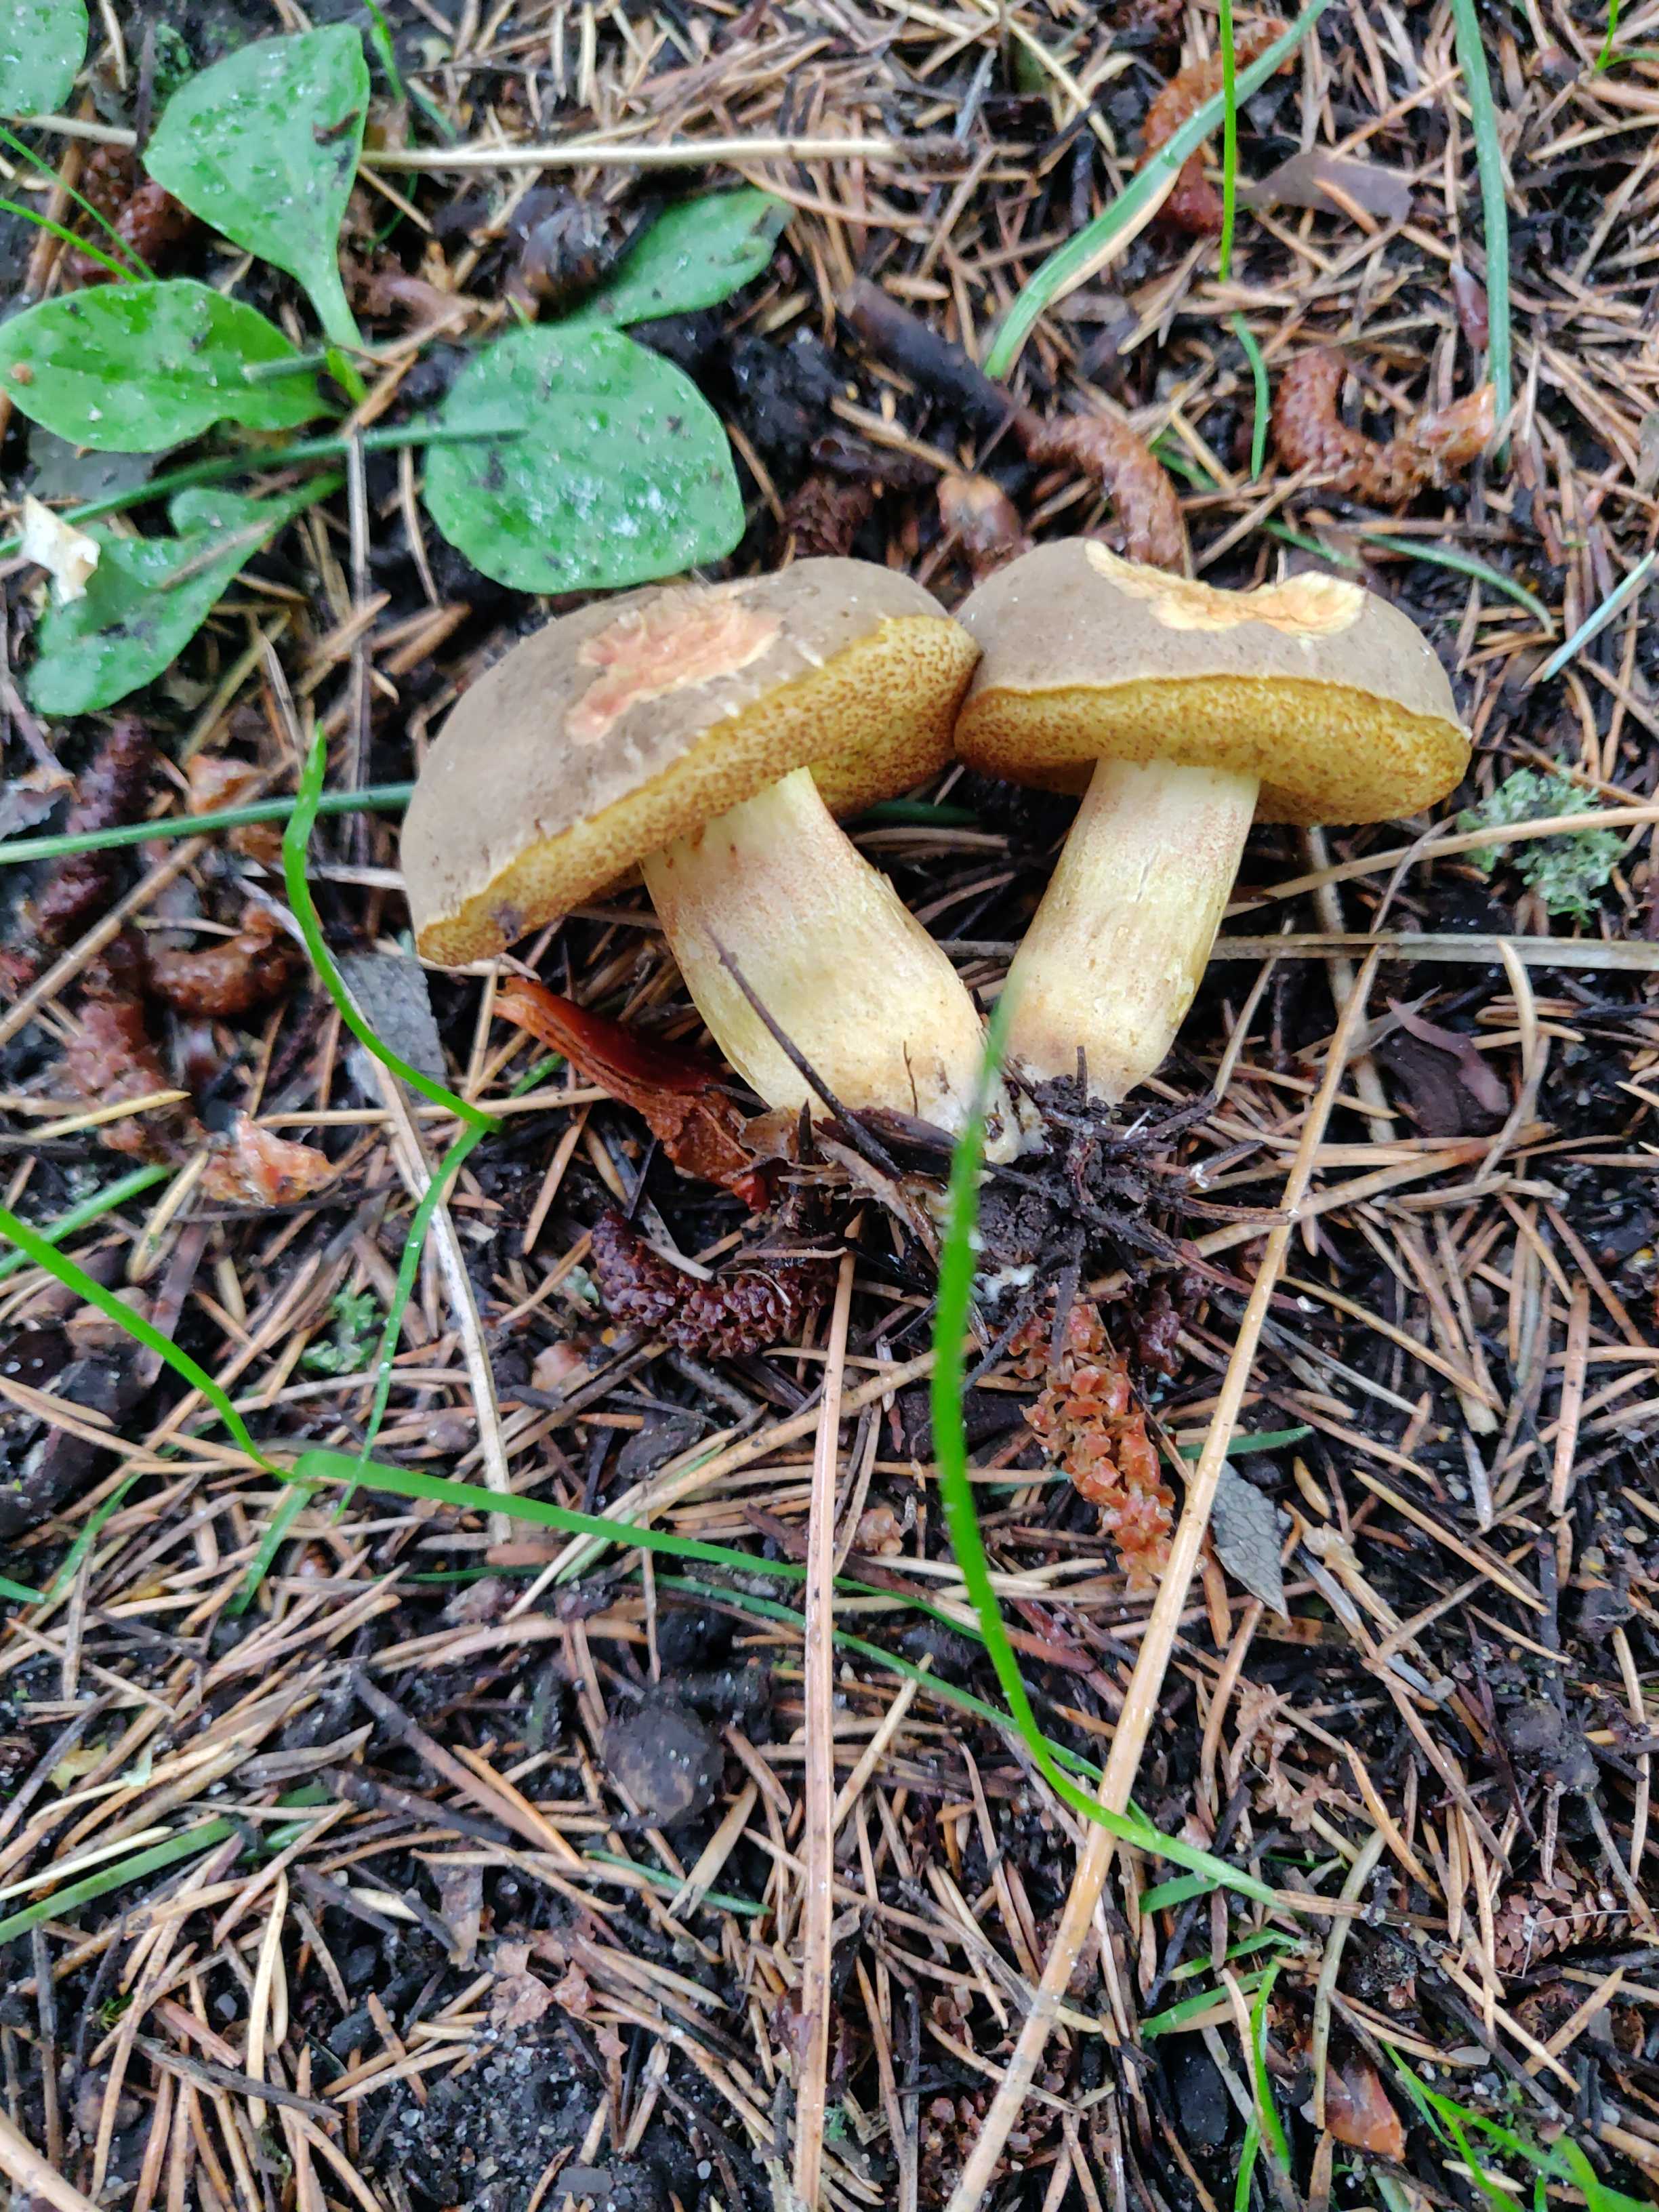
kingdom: Fungi
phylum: Basidiomycota
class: Agaricomycetes
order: Boletales
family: Boletaceae
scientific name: Boletaceae
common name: rørhatfamilien
